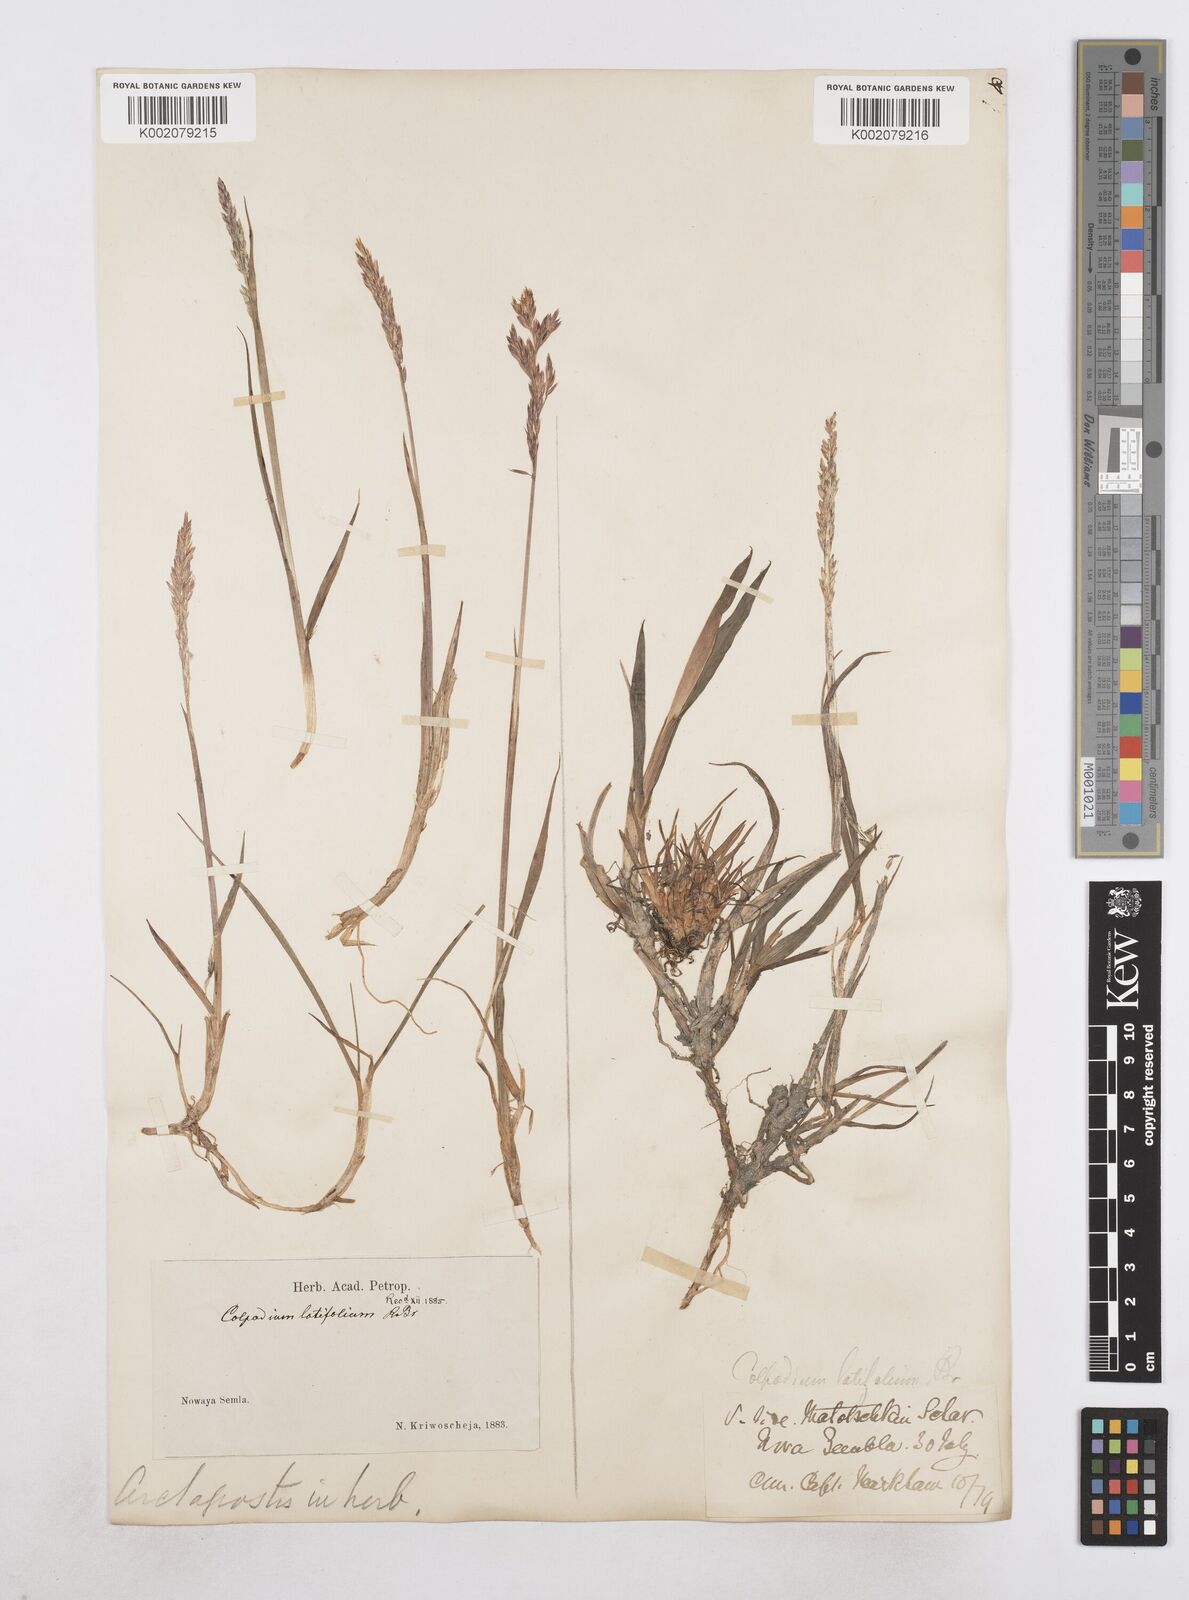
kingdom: Plantae
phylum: Tracheophyta
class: Liliopsida
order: Poales
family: Poaceae
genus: Arctagrostis
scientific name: Arctagrostis latifolia
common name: Arctic grass
